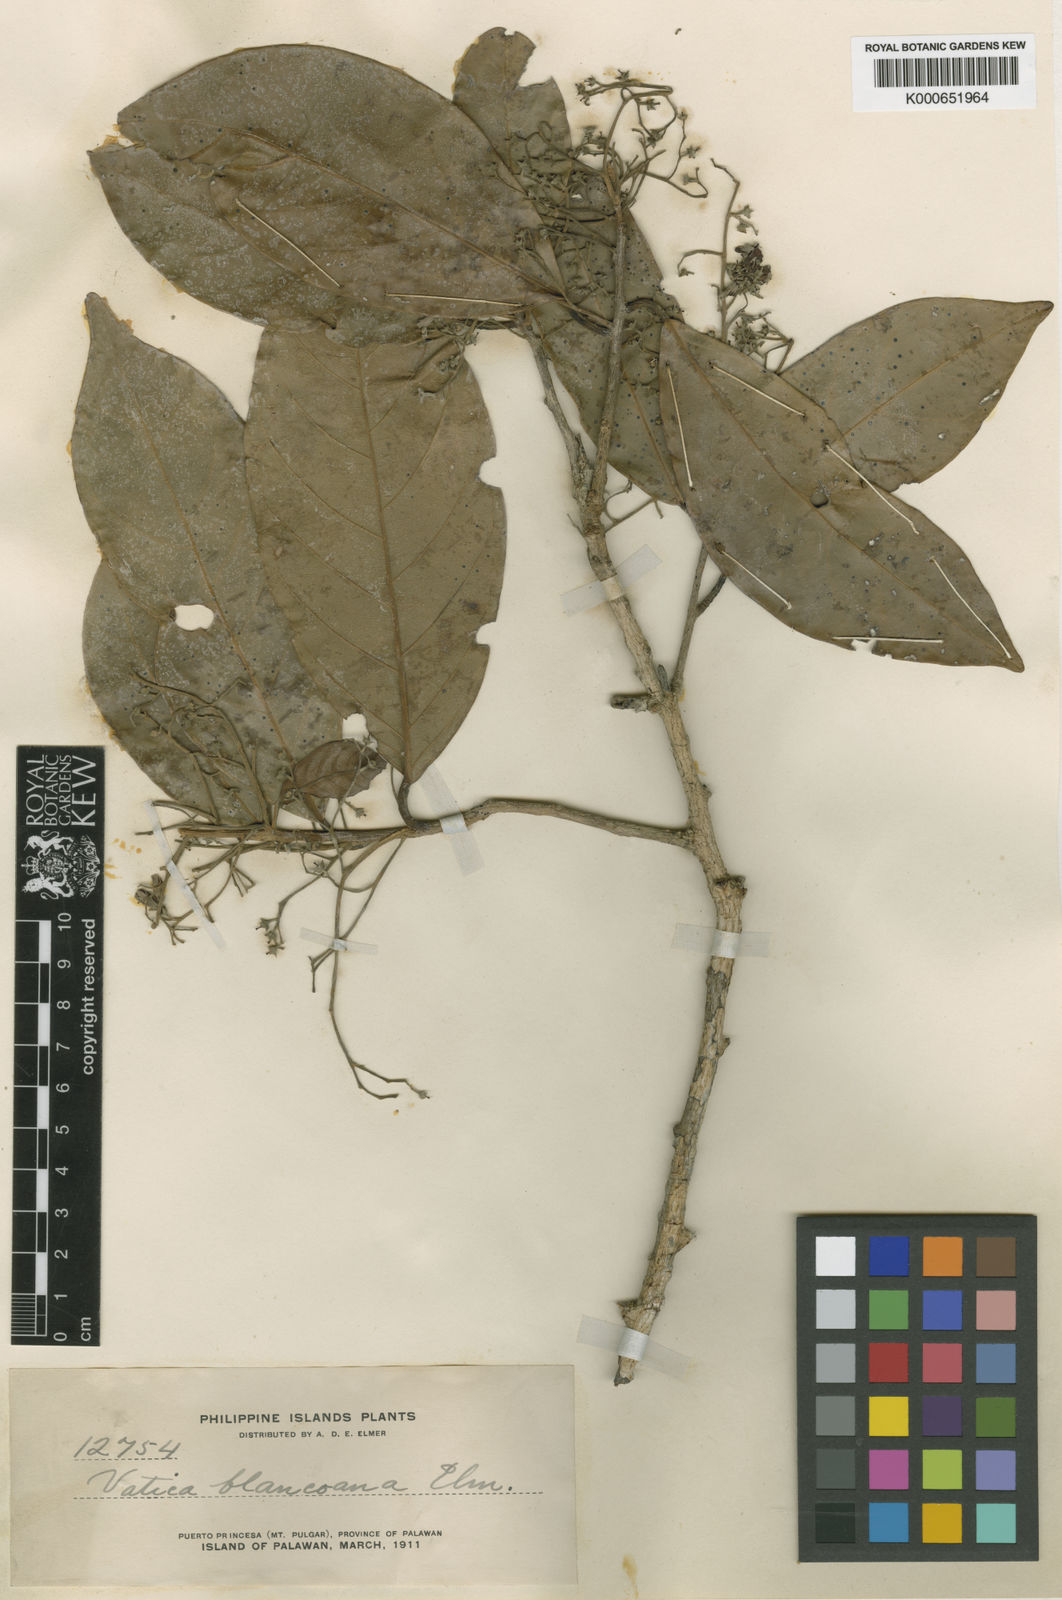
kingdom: Plantae
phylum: Tracheophyta
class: Magnoliopsida
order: Malvales
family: Dipterocarpaceae
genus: Vatica
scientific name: Vatica umbonata
